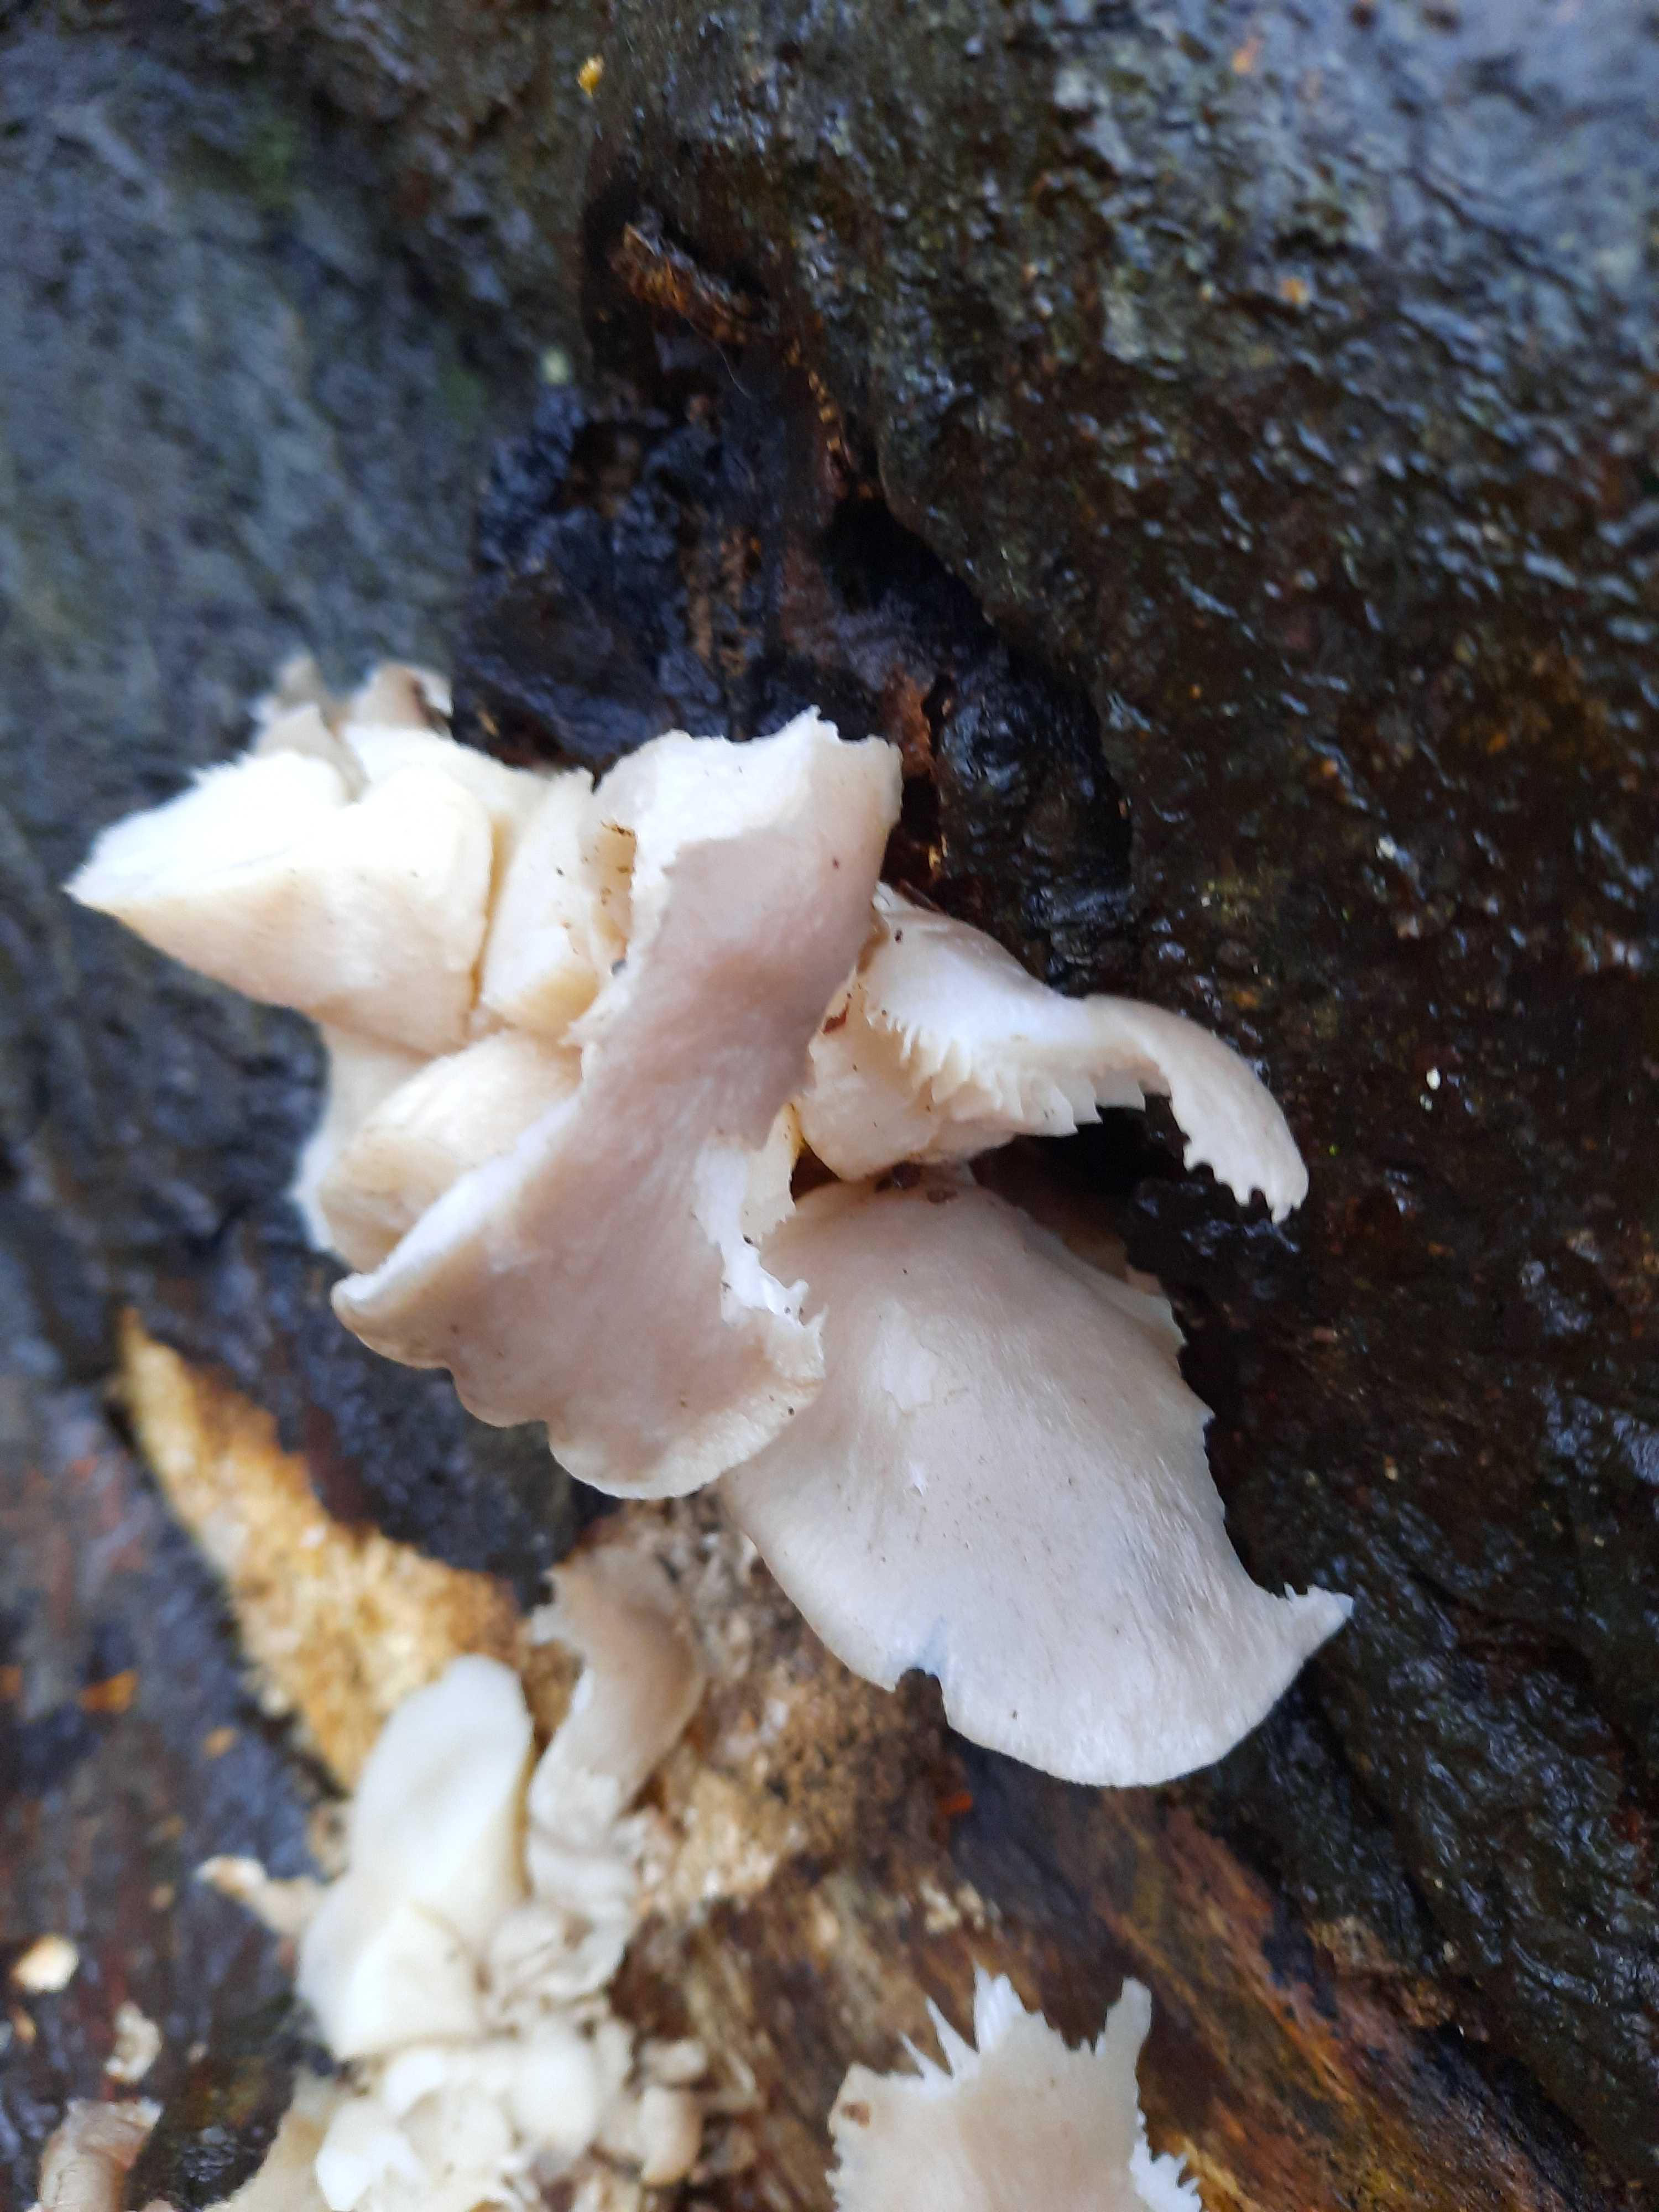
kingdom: Fungi
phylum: Basidiomycota
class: Agaricomycetes
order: Agaricales
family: Pleurotaceae
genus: Pleurotus
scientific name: Pleurotus ostreatus
